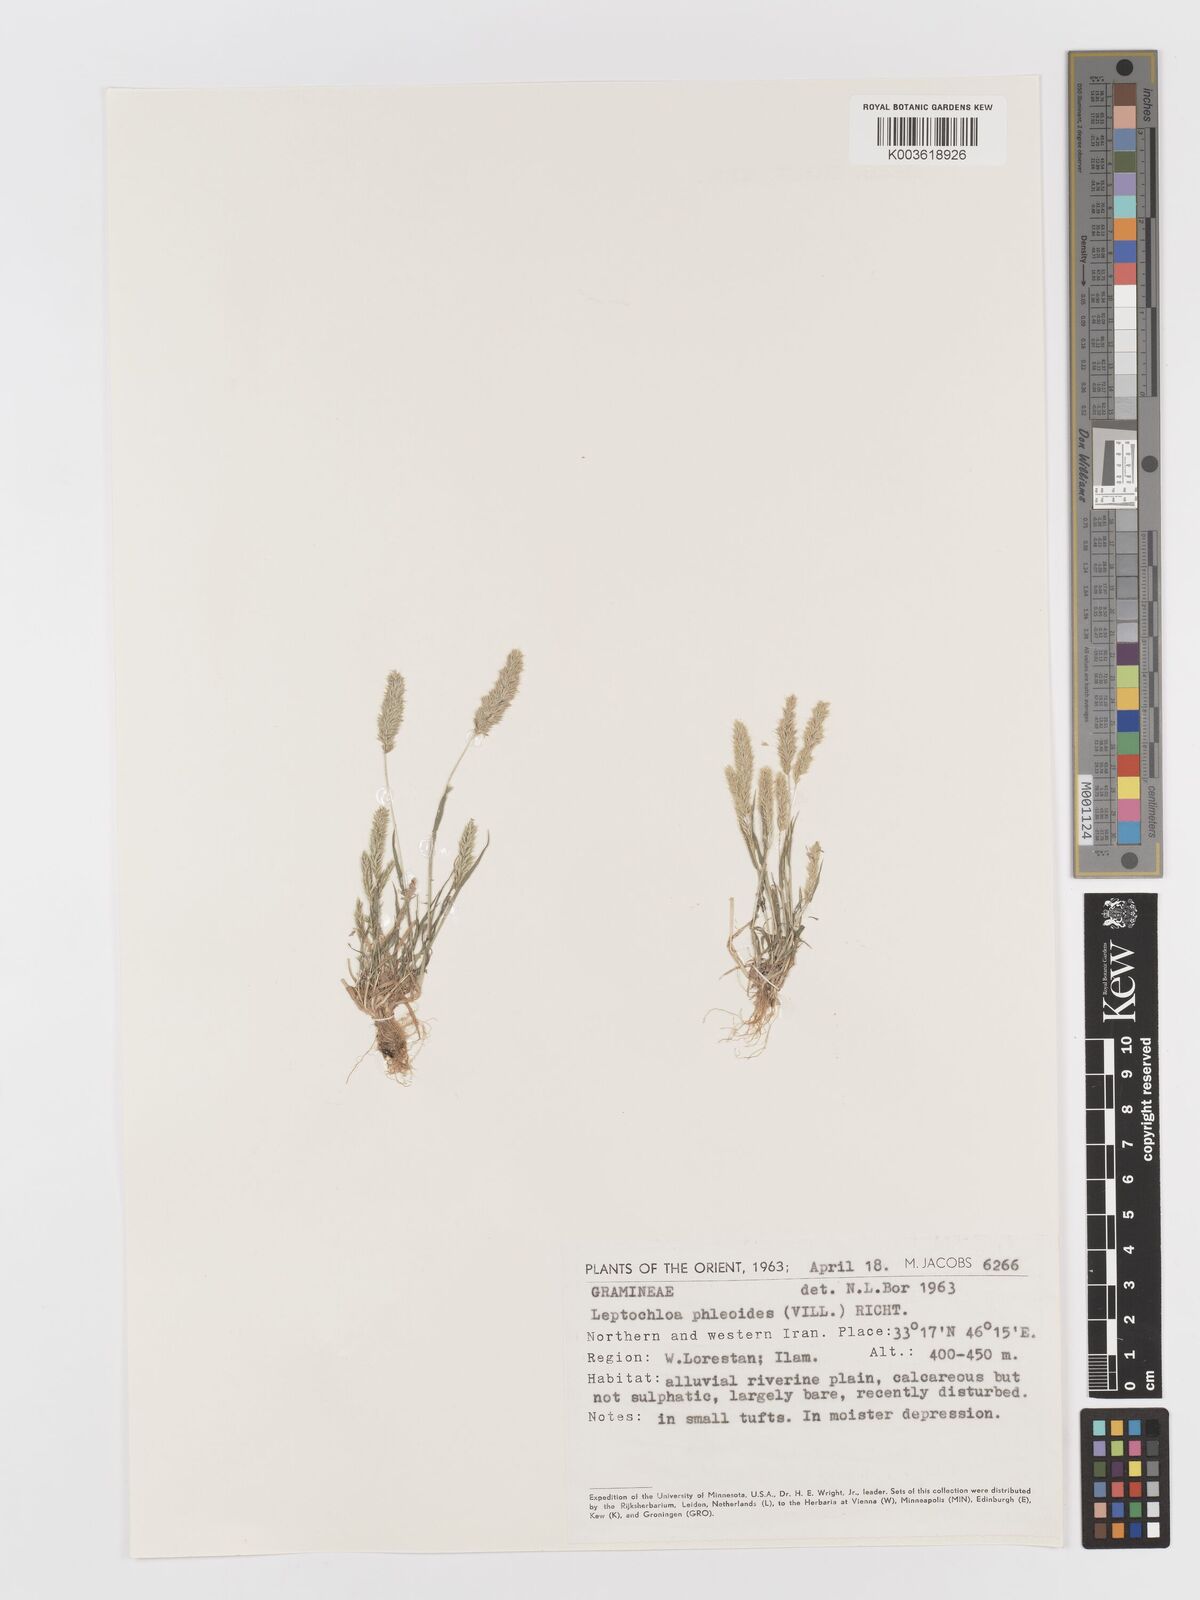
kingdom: Plantae
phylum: Tracheophyta
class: Liliopsida
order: Poales
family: Poaceae
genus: Rostraria
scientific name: Rostraria cristata
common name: Mediterranean hair-grass
